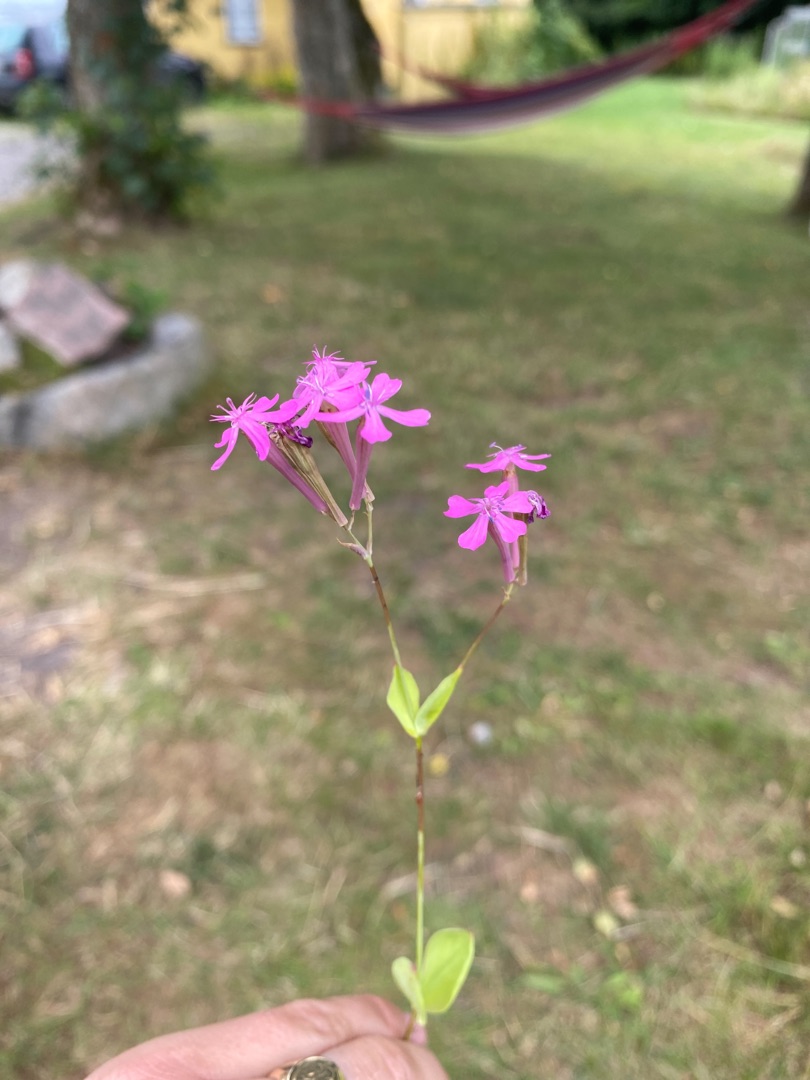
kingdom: Plantae
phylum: Tracheophyta
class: Magnoliopsida
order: Caryophyllales
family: Caryophyllaceae
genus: Atocion
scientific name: Atocion armeria
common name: Knippe-limurt
